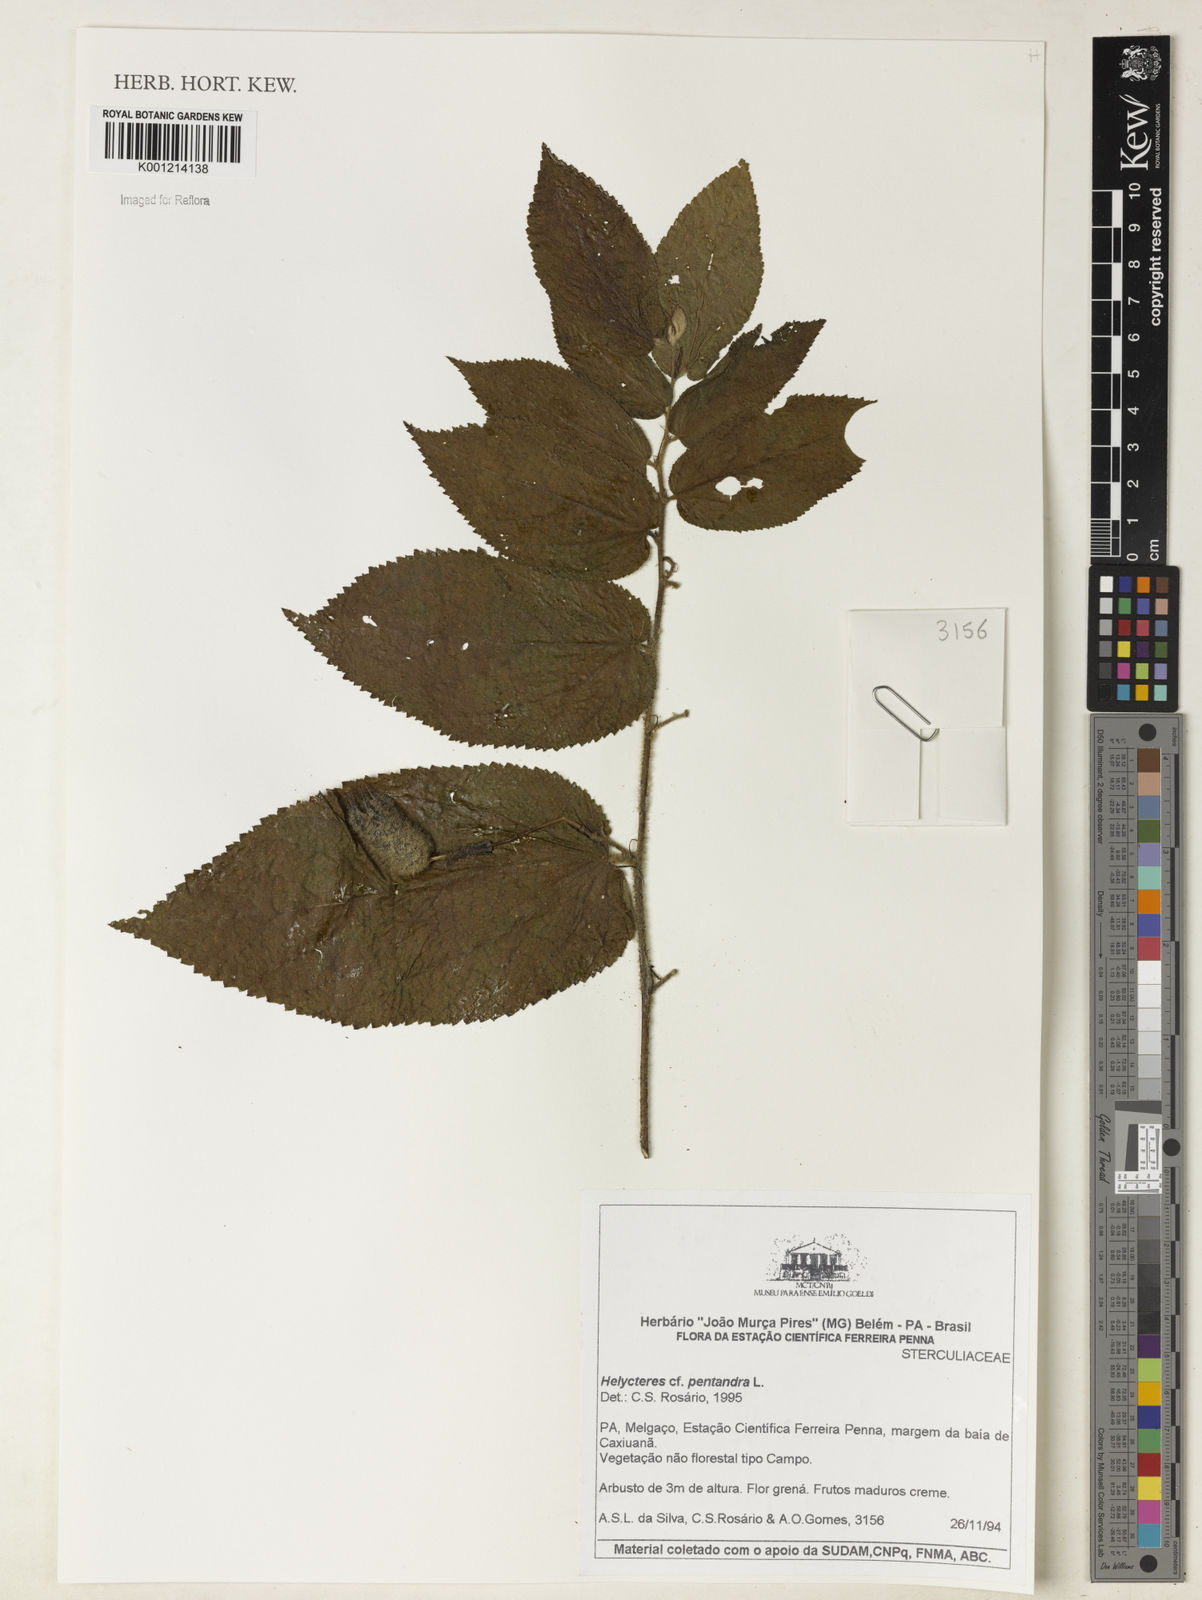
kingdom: Plantae
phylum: Tracheophyta
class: Magnoliopsida
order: Malvales
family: Malvaceae
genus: Helicteres
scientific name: Helicteres pentandra
